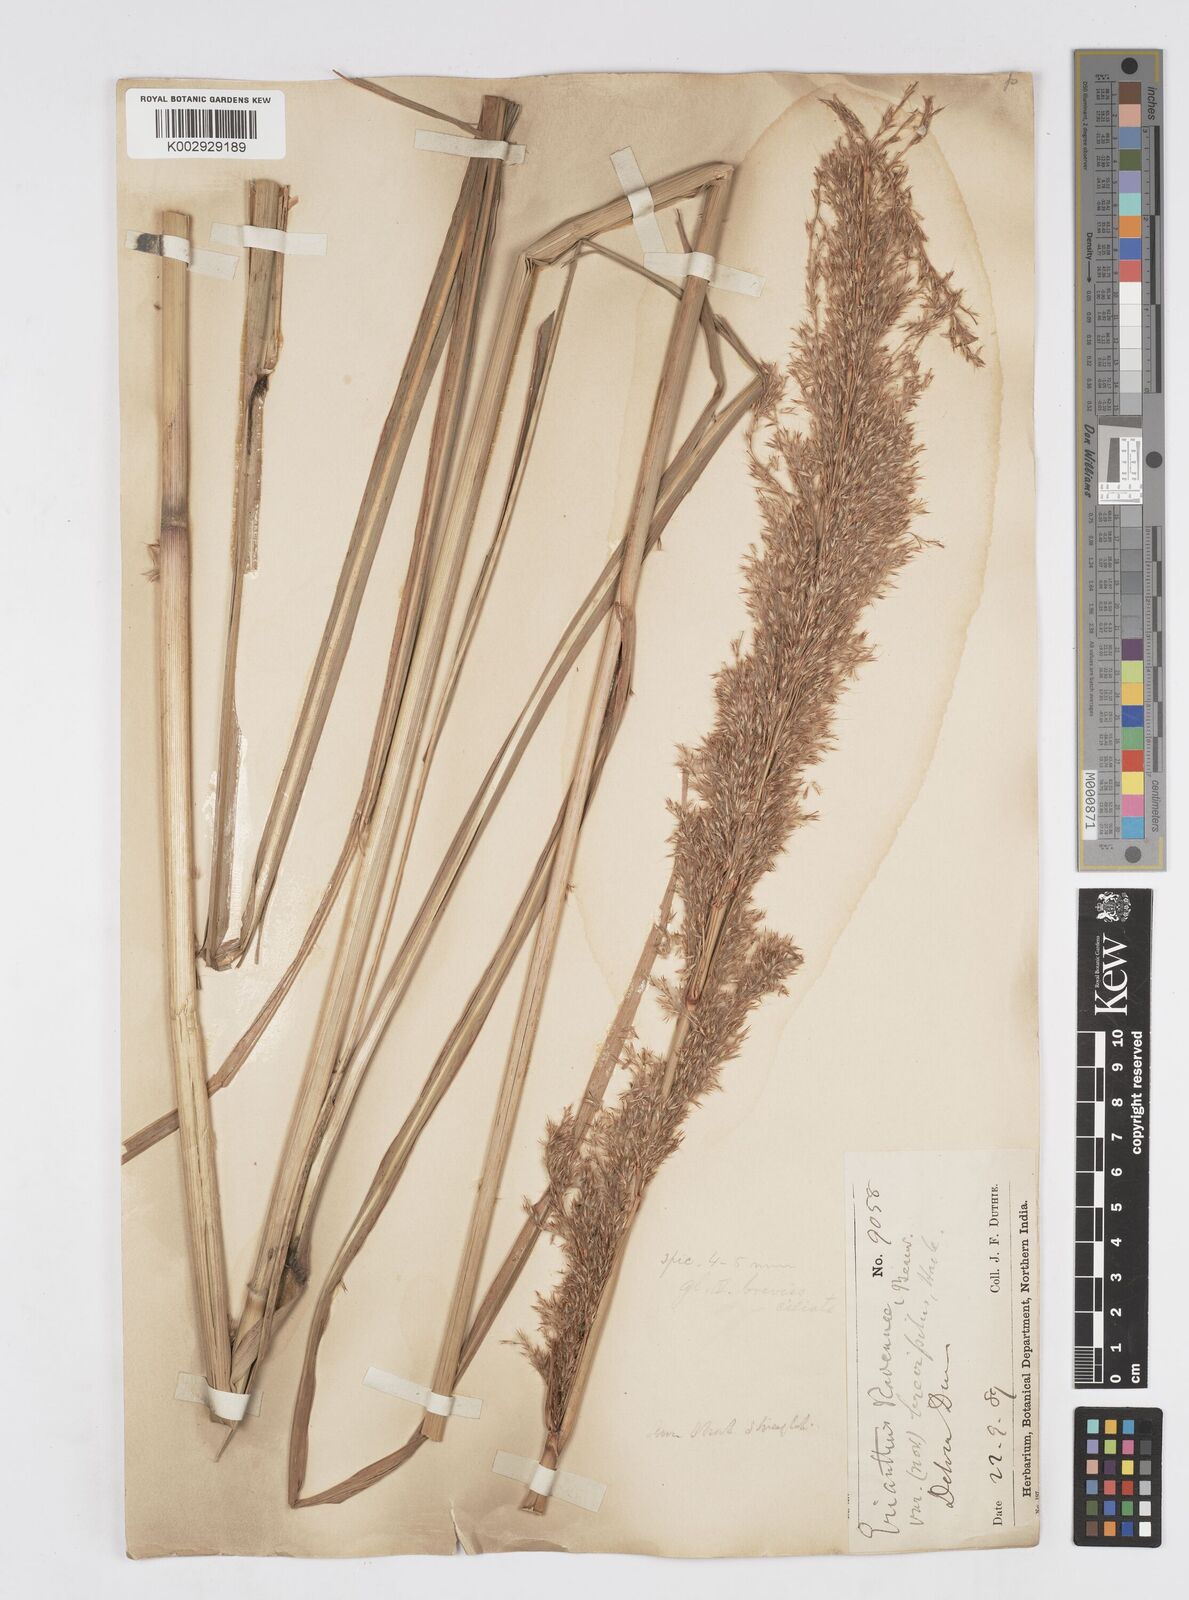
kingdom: Plantae
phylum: Tracheophyta
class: Liliopsida
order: Poales
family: Poaceae
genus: Tripidium
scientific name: Tripidium ravennae
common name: Ravenna grass
